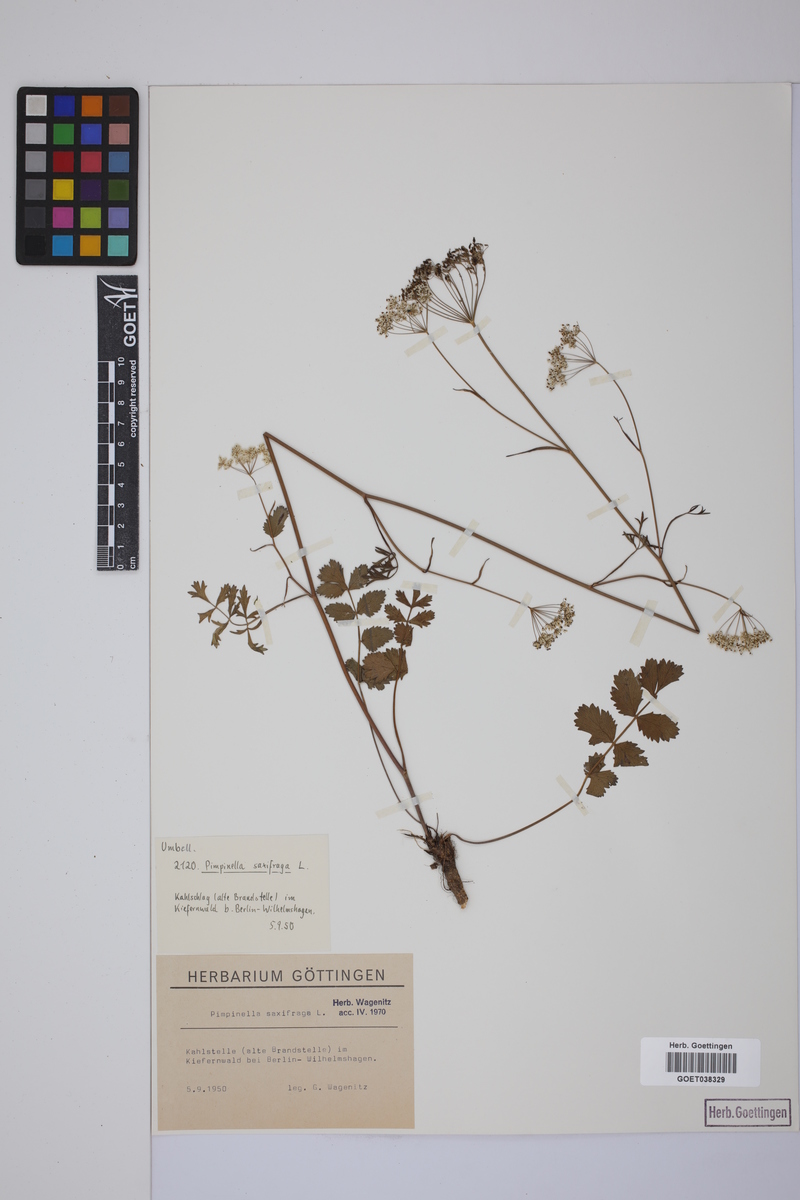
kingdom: Plantae
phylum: Tracheophyta
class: Magnoliopsida
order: Apiales
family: Apiaceae
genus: Pimpinella
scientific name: Pimpinella saxifraga
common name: Burnet-saxifrage
